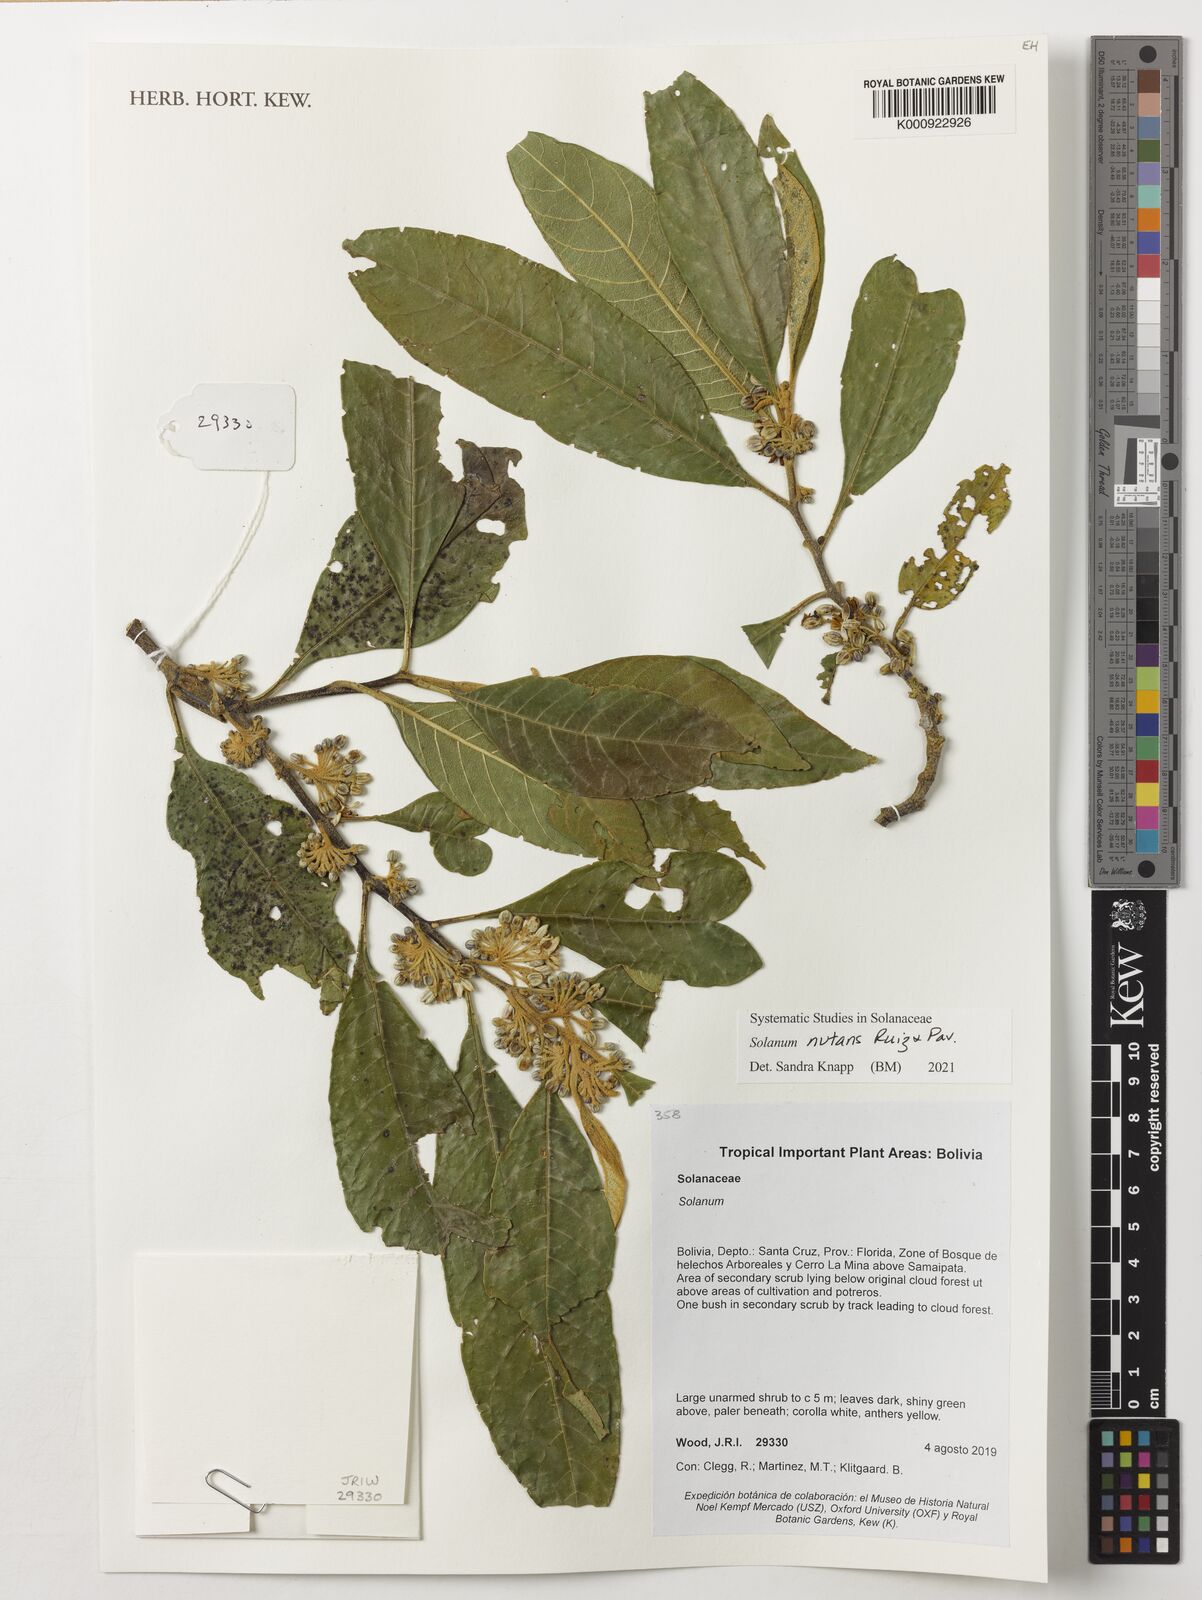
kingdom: Plantae
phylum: Tracheophyta
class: Magnoliopsida
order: Solanales
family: Solanaceae
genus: Solanum
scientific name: Solanum nutans
